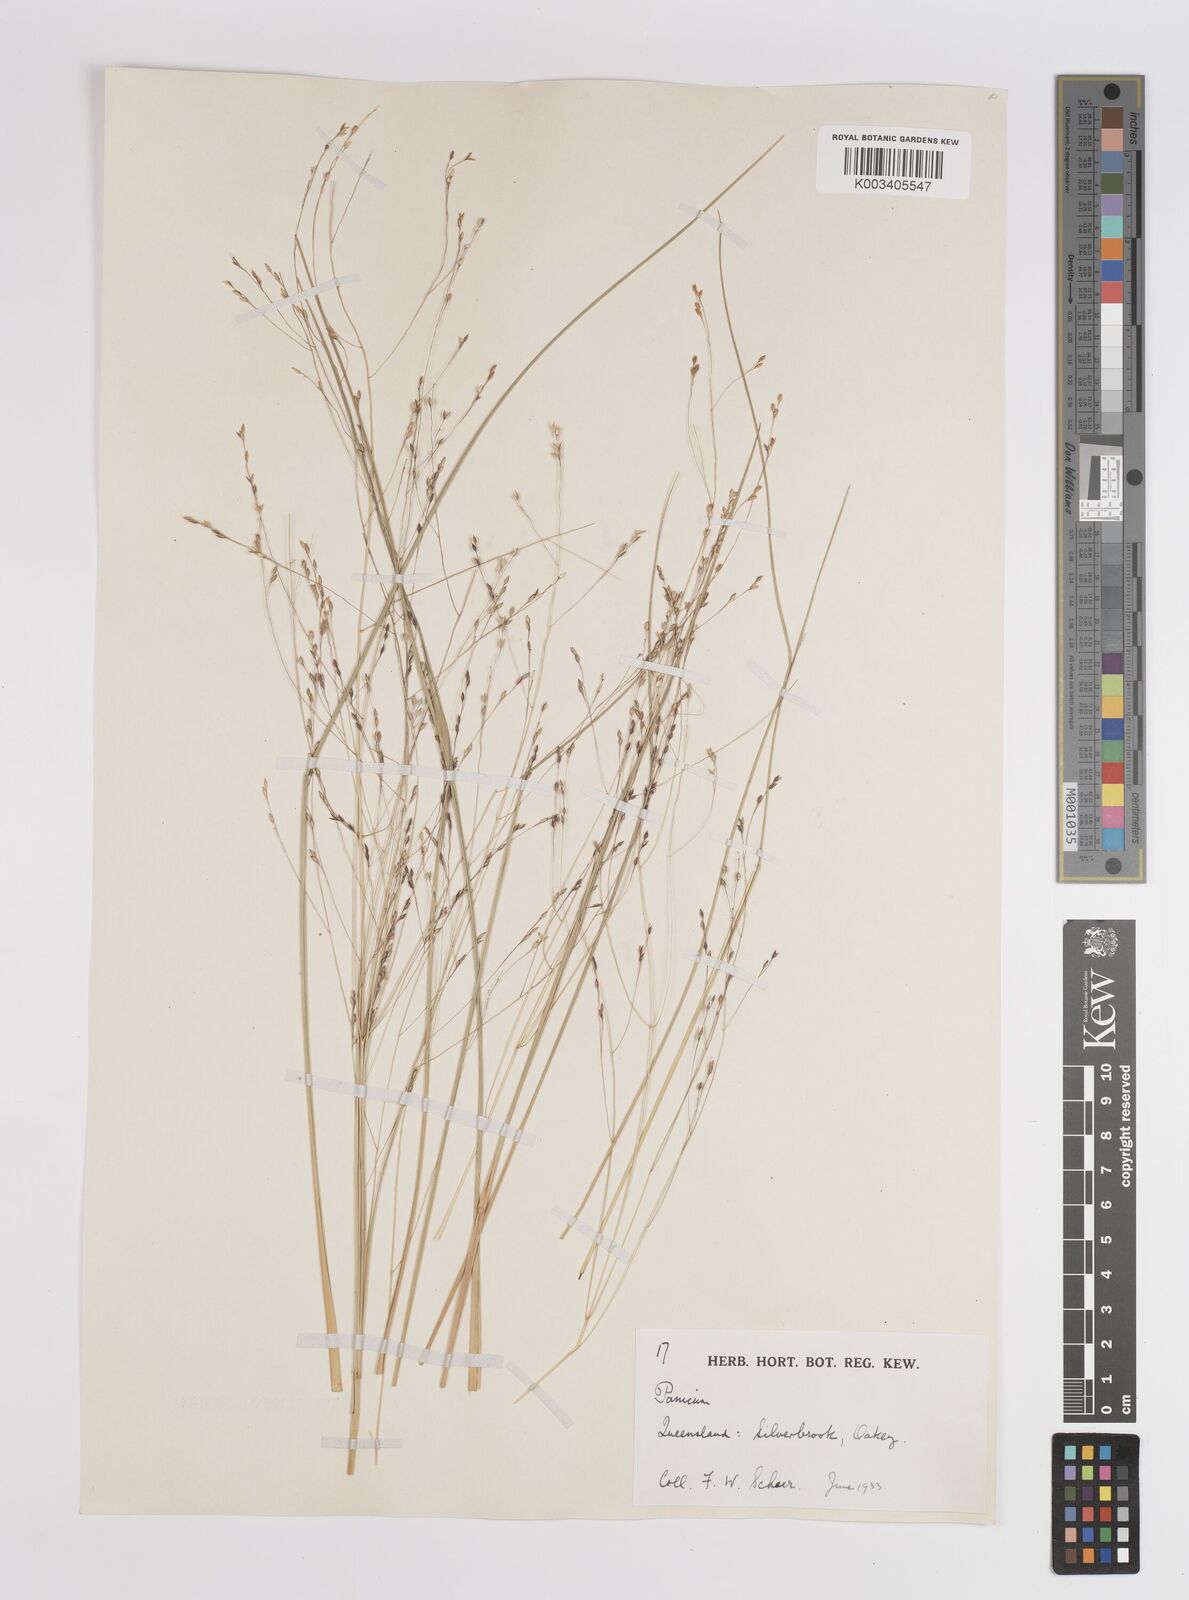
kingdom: Plantae
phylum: Tracheophyta
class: Liliopsida
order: Poales
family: Poaceae
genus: Panicum
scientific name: Panicum
